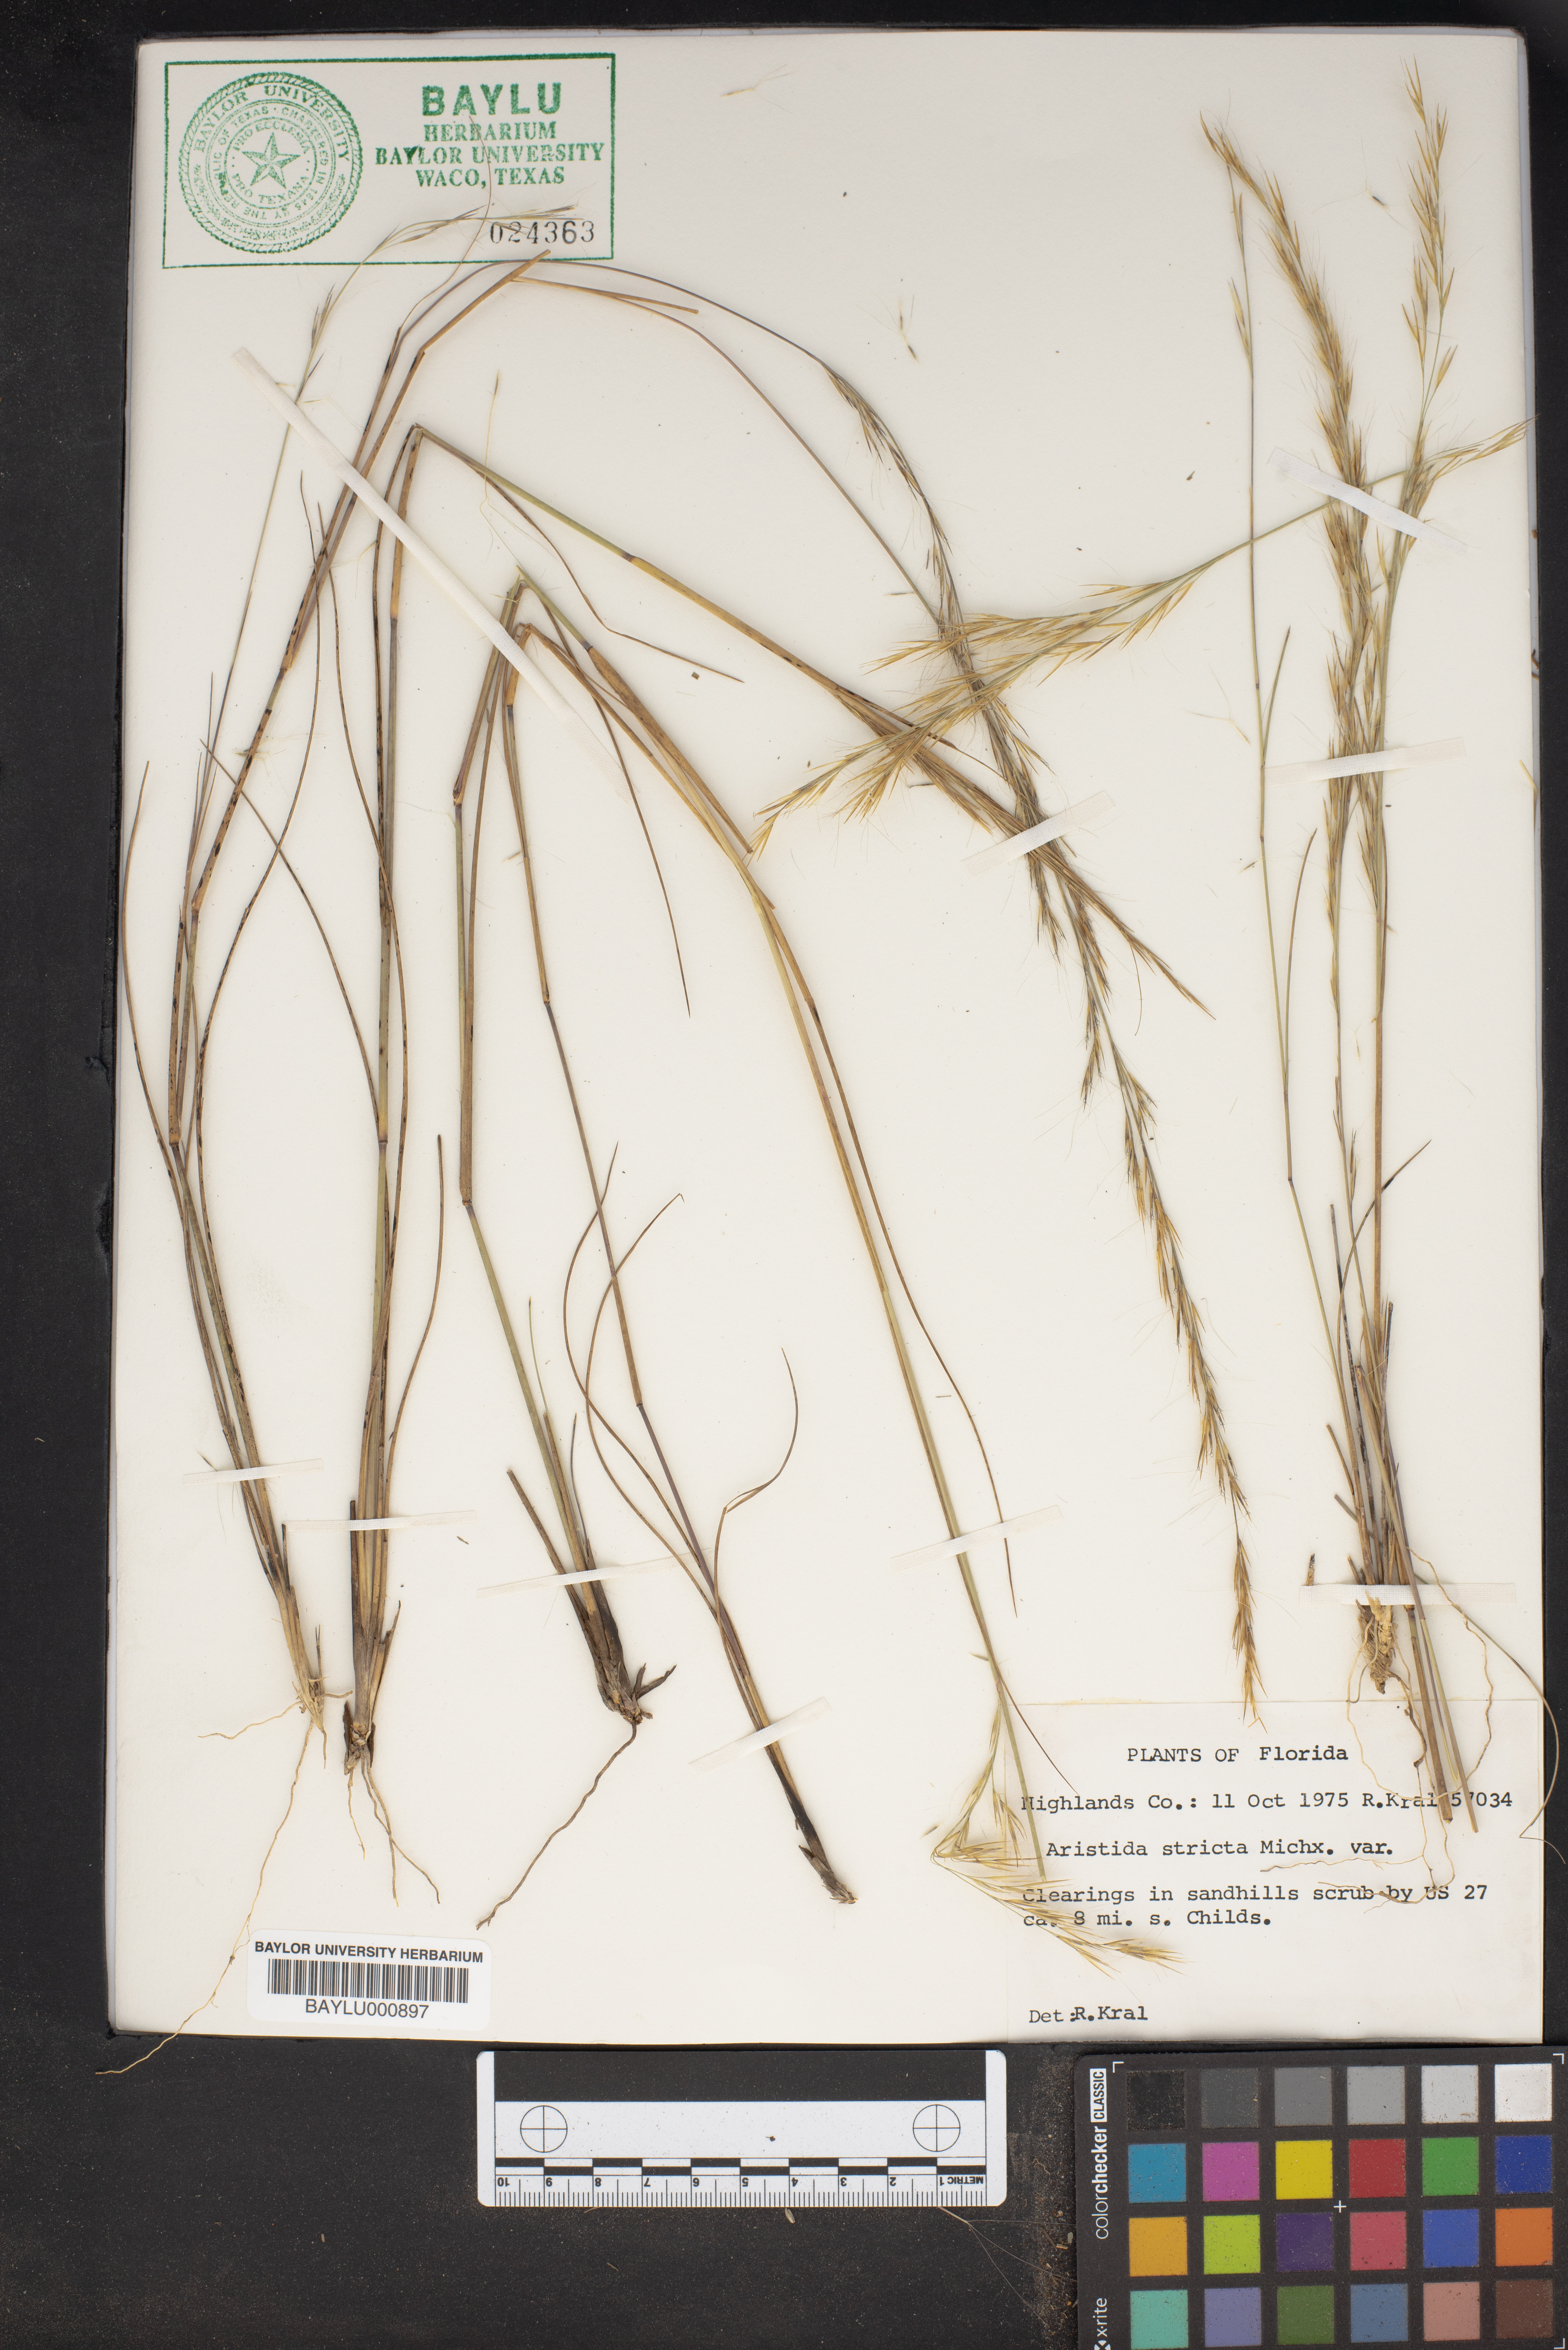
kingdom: Plantae
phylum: Tracheophyta
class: Liliopsida
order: Poales
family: Poaceae
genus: Aristida
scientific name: Aristida stricta
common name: Pineland three-awn
